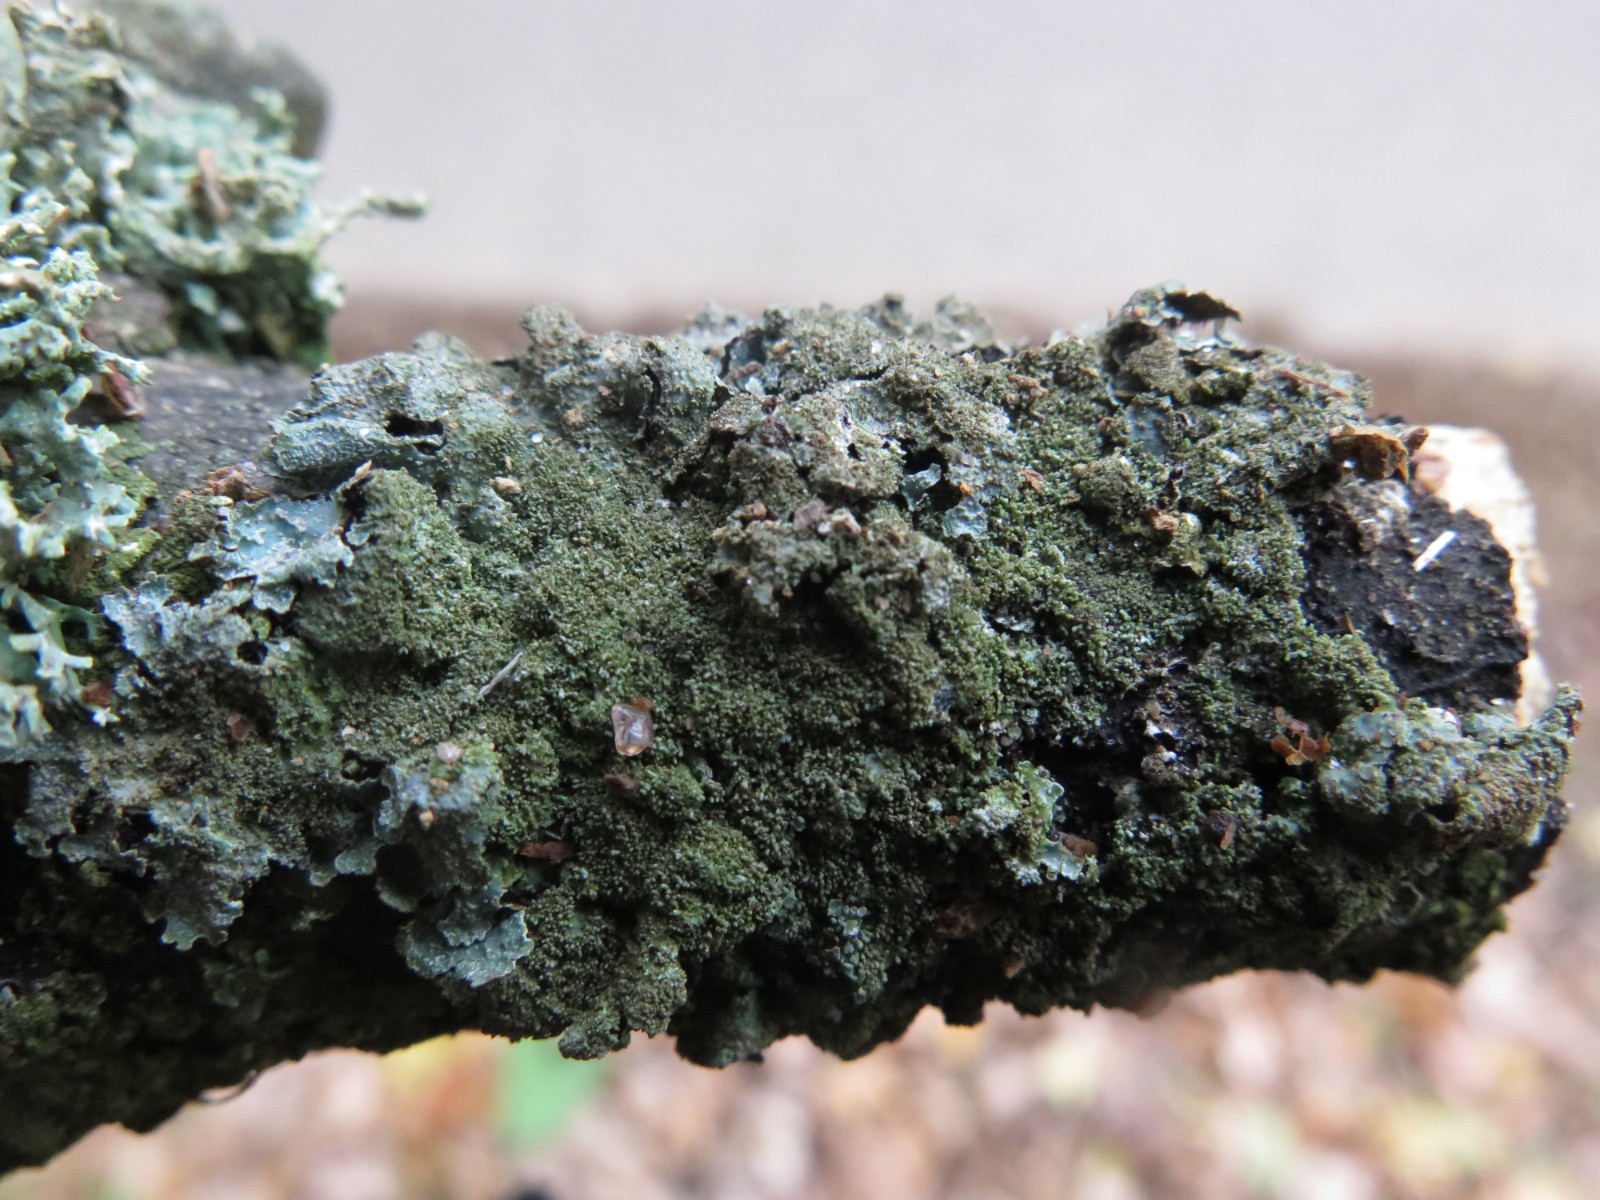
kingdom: Fungi
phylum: Ascomycota
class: Lecanoromycetes
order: Lecanorales
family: Parmeliaceae
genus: Parmelia
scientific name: Parmelia saxatilis
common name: farve-skållav
